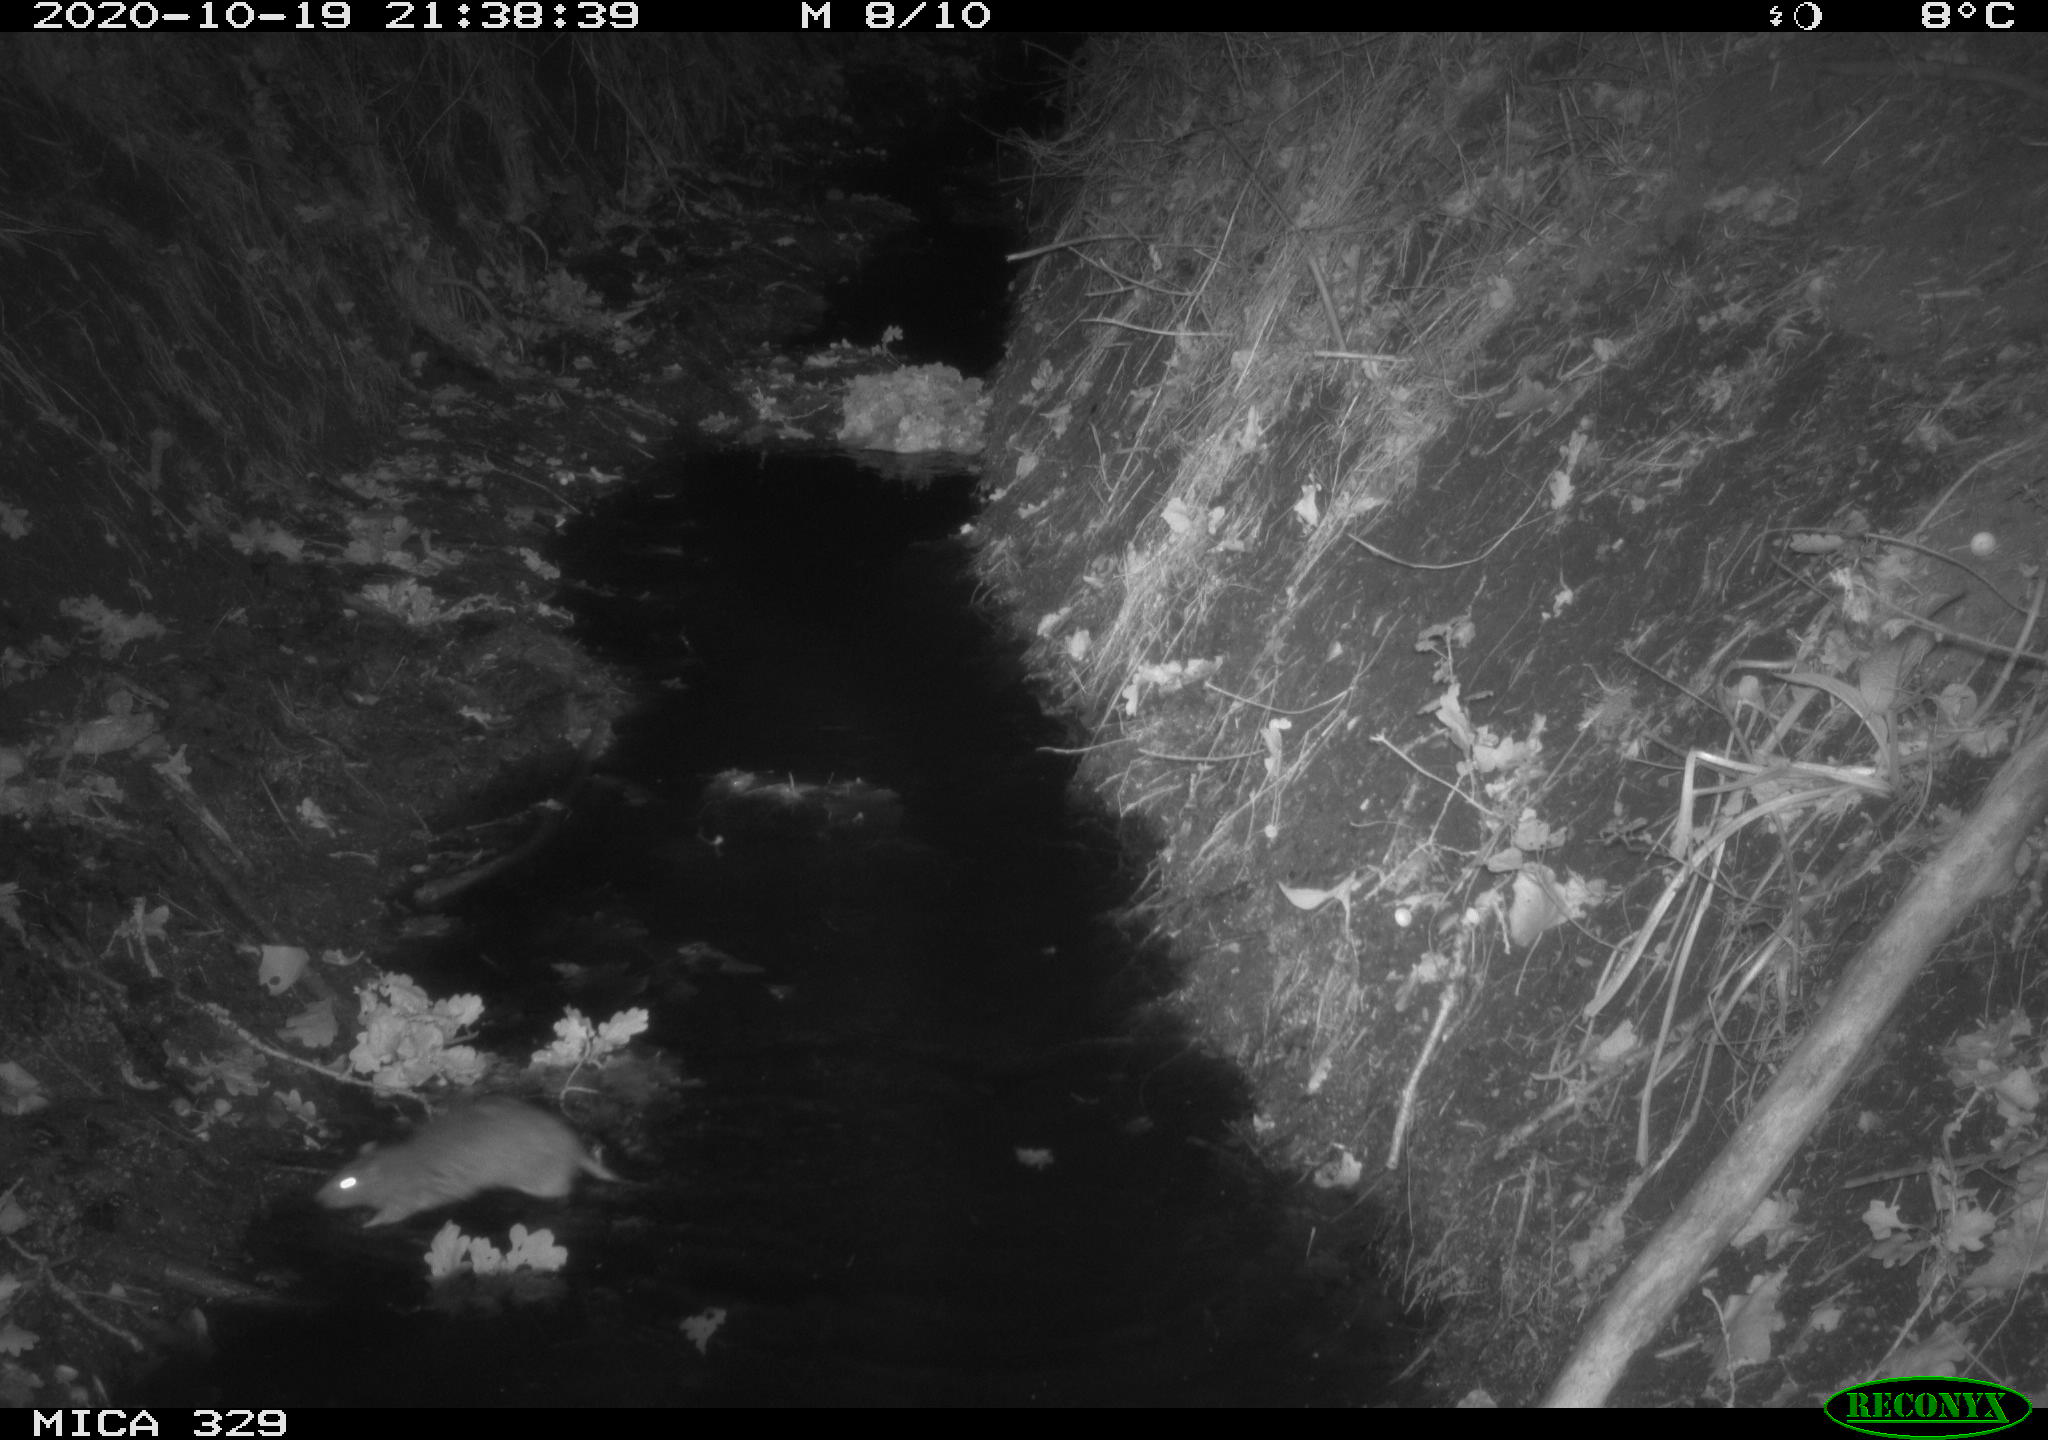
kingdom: Animalia
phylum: Chordata
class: Mammalia
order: Rodentia
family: Muridae
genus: Rattus
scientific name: Rattus norvegicus
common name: Brown rat
